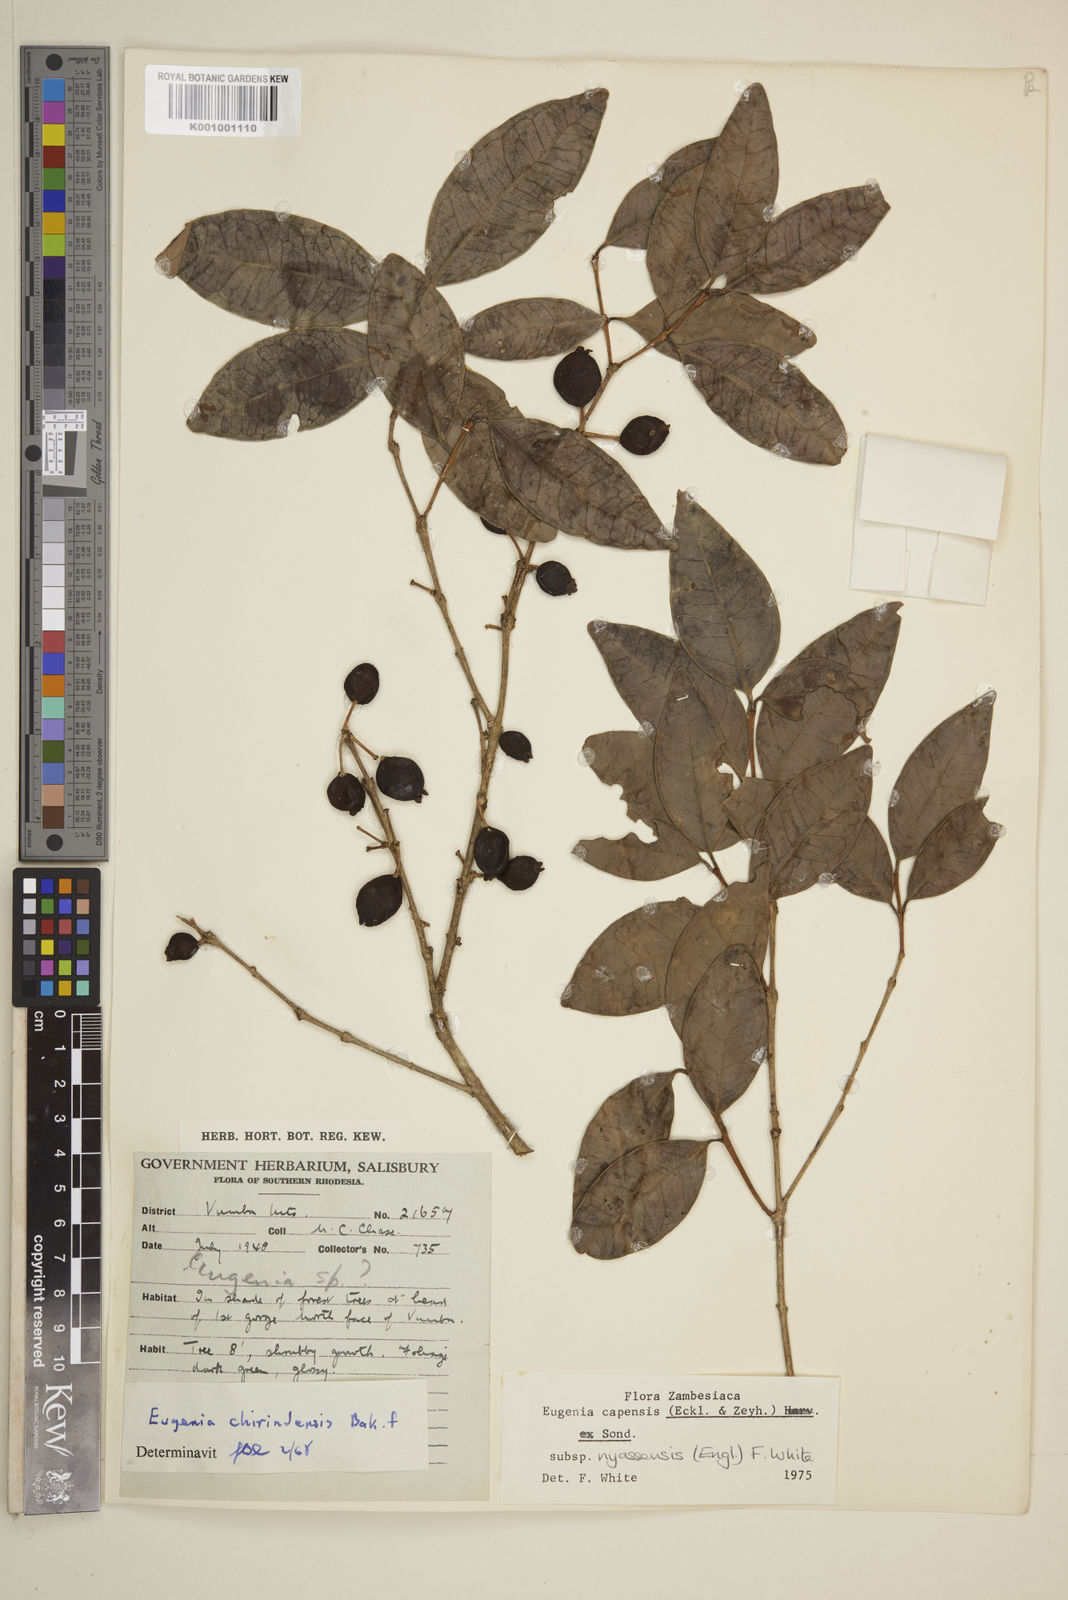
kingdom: Plantae
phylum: Tracheophyta
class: Magnoliopsida
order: Myrtales
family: Myrtaceae
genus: Eugenia
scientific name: Eugenia capensis
